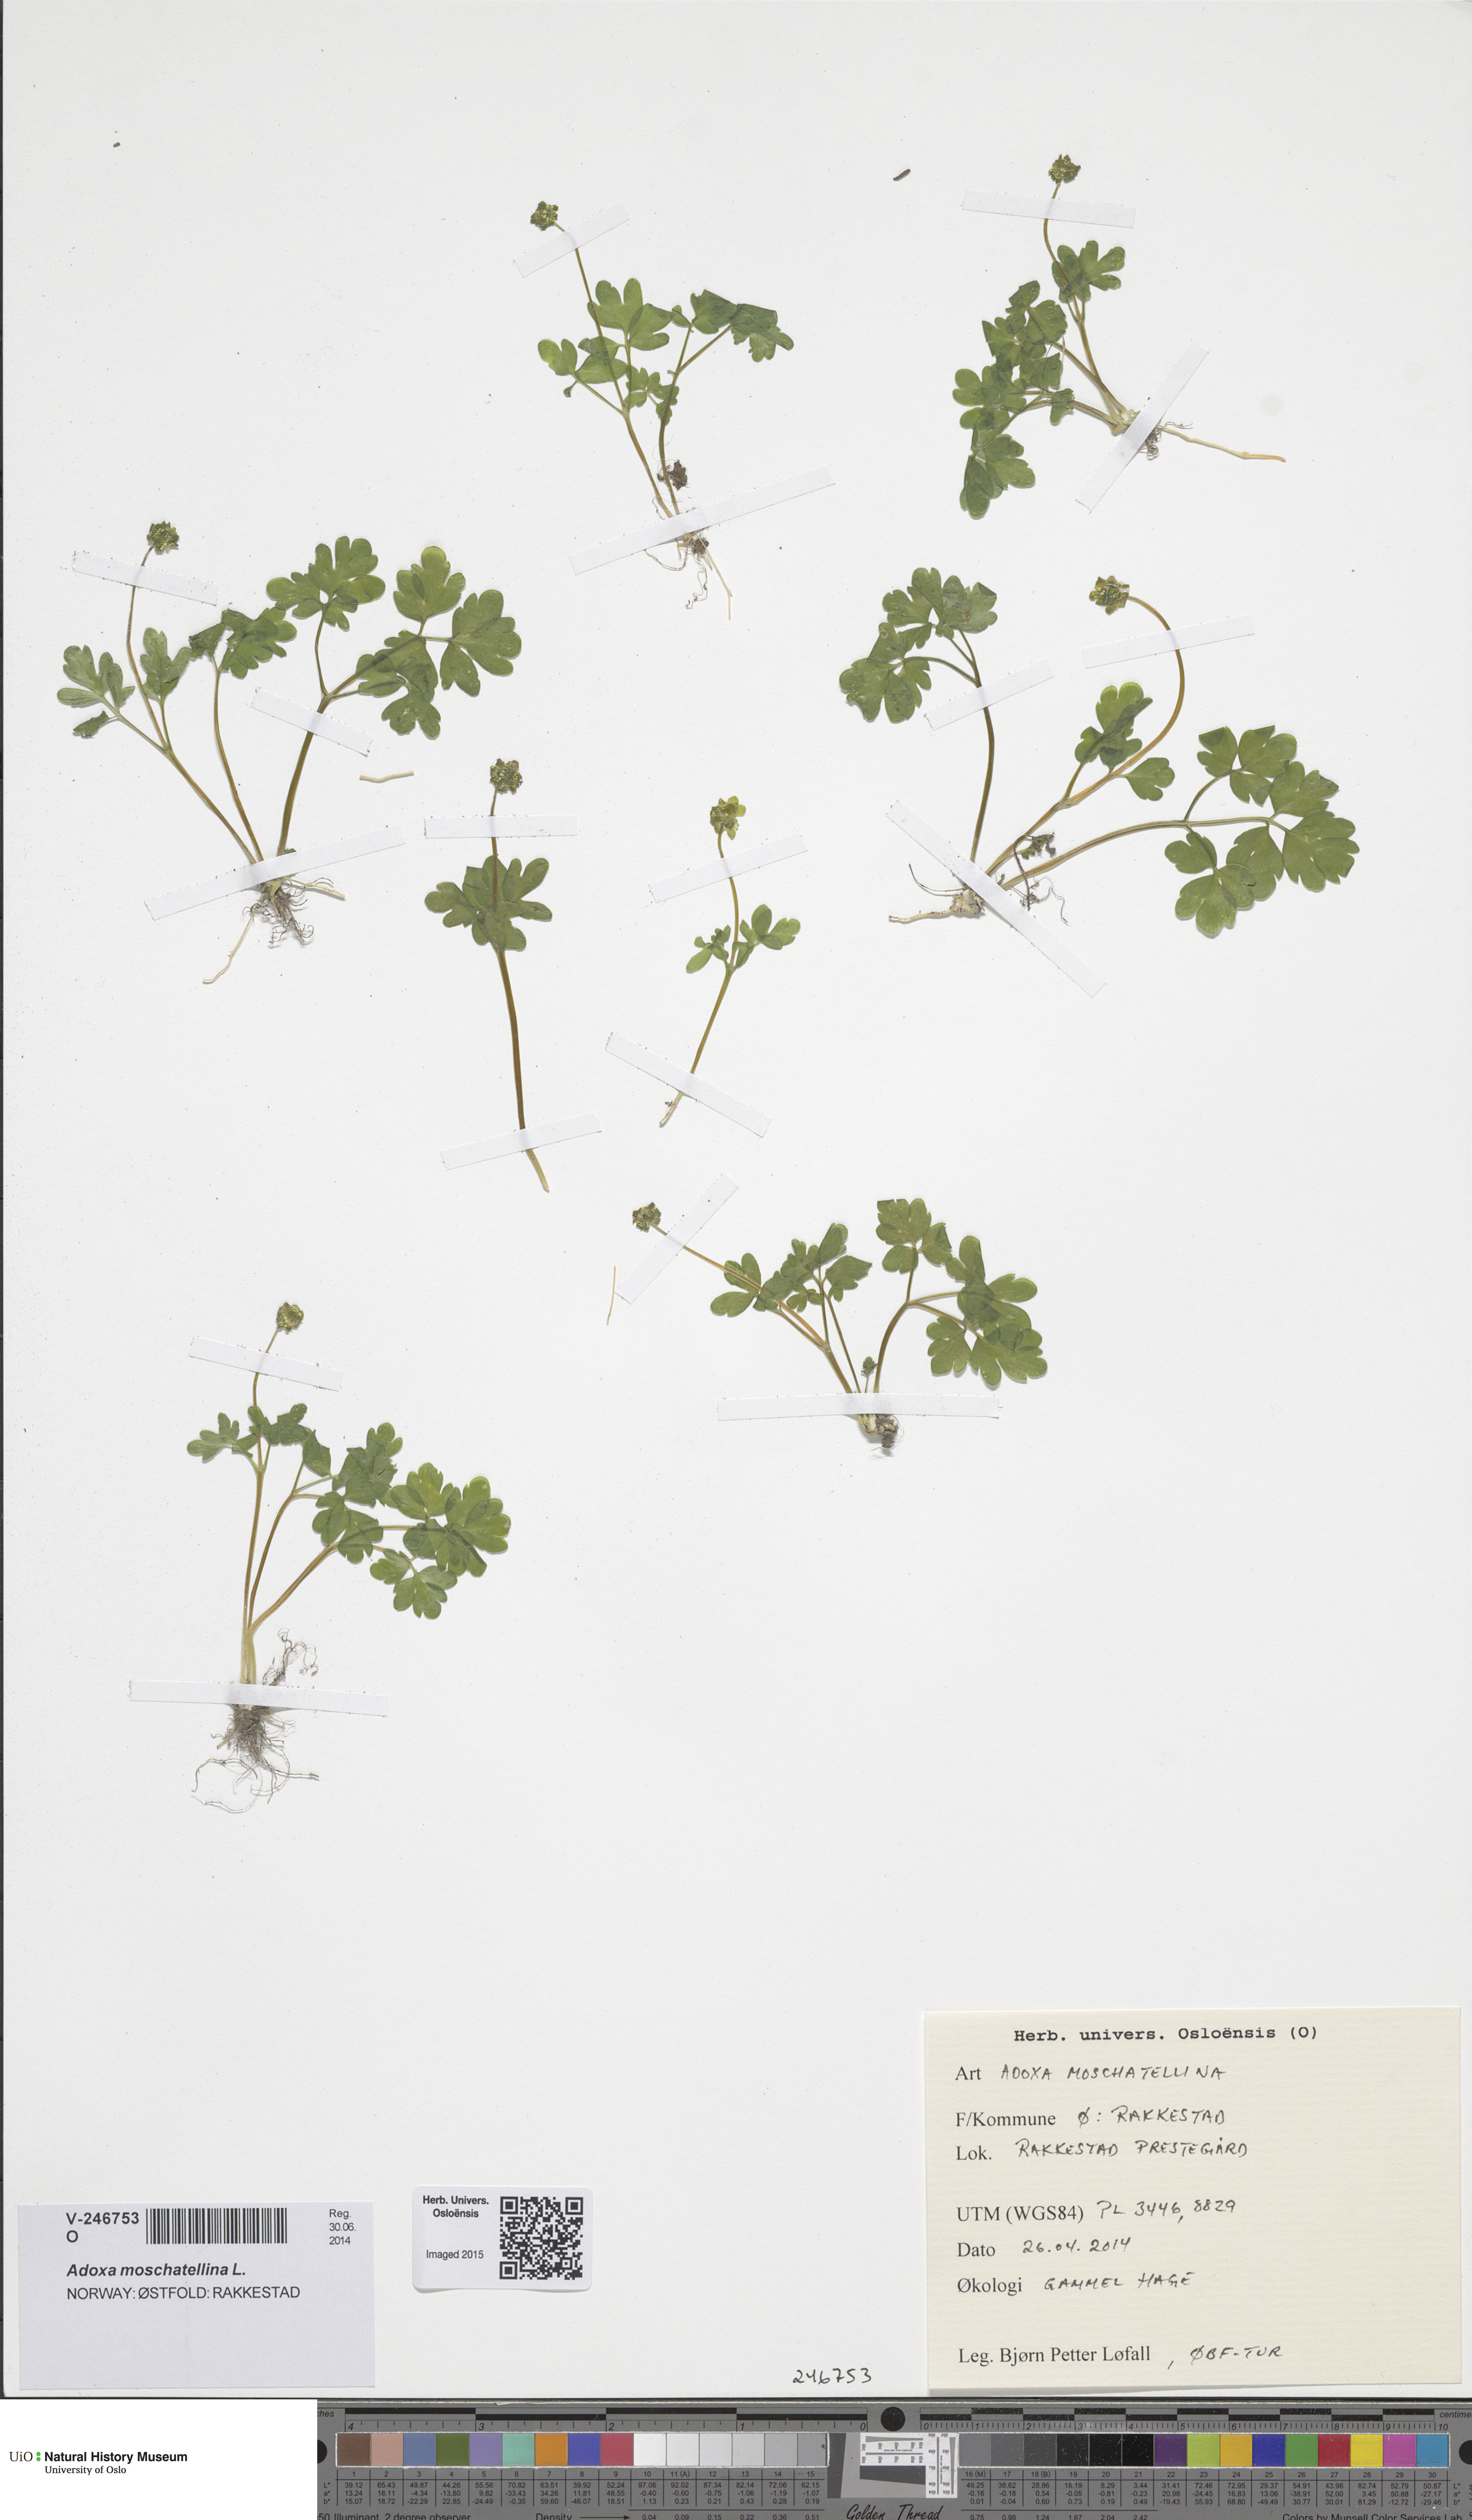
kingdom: Plantae
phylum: Tracheophyta
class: Magnoliopsida
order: Dipsacales
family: Viburnaceae
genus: Adoxa
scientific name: Adoxa moschatellina
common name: Moschatel
